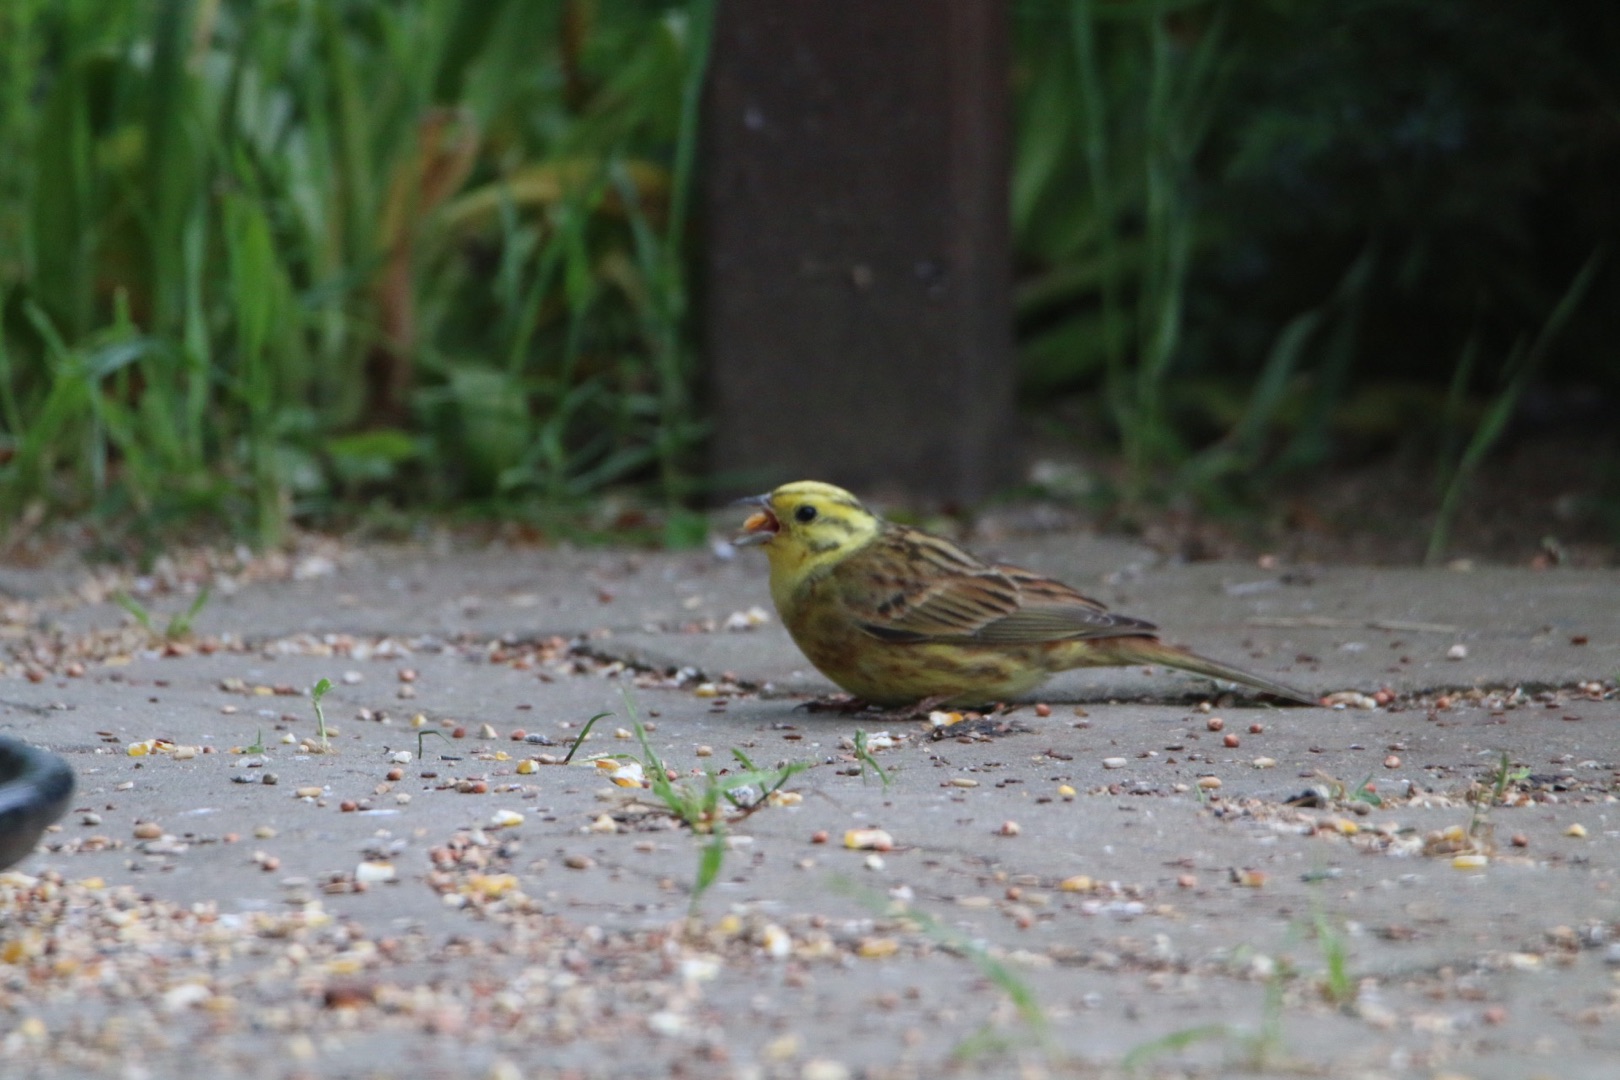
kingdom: Animalia
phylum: Chordata
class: Aves
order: Passeriformes
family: Emberizidae
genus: Emberiza
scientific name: Emberiza citrinella
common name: Gulspurv
